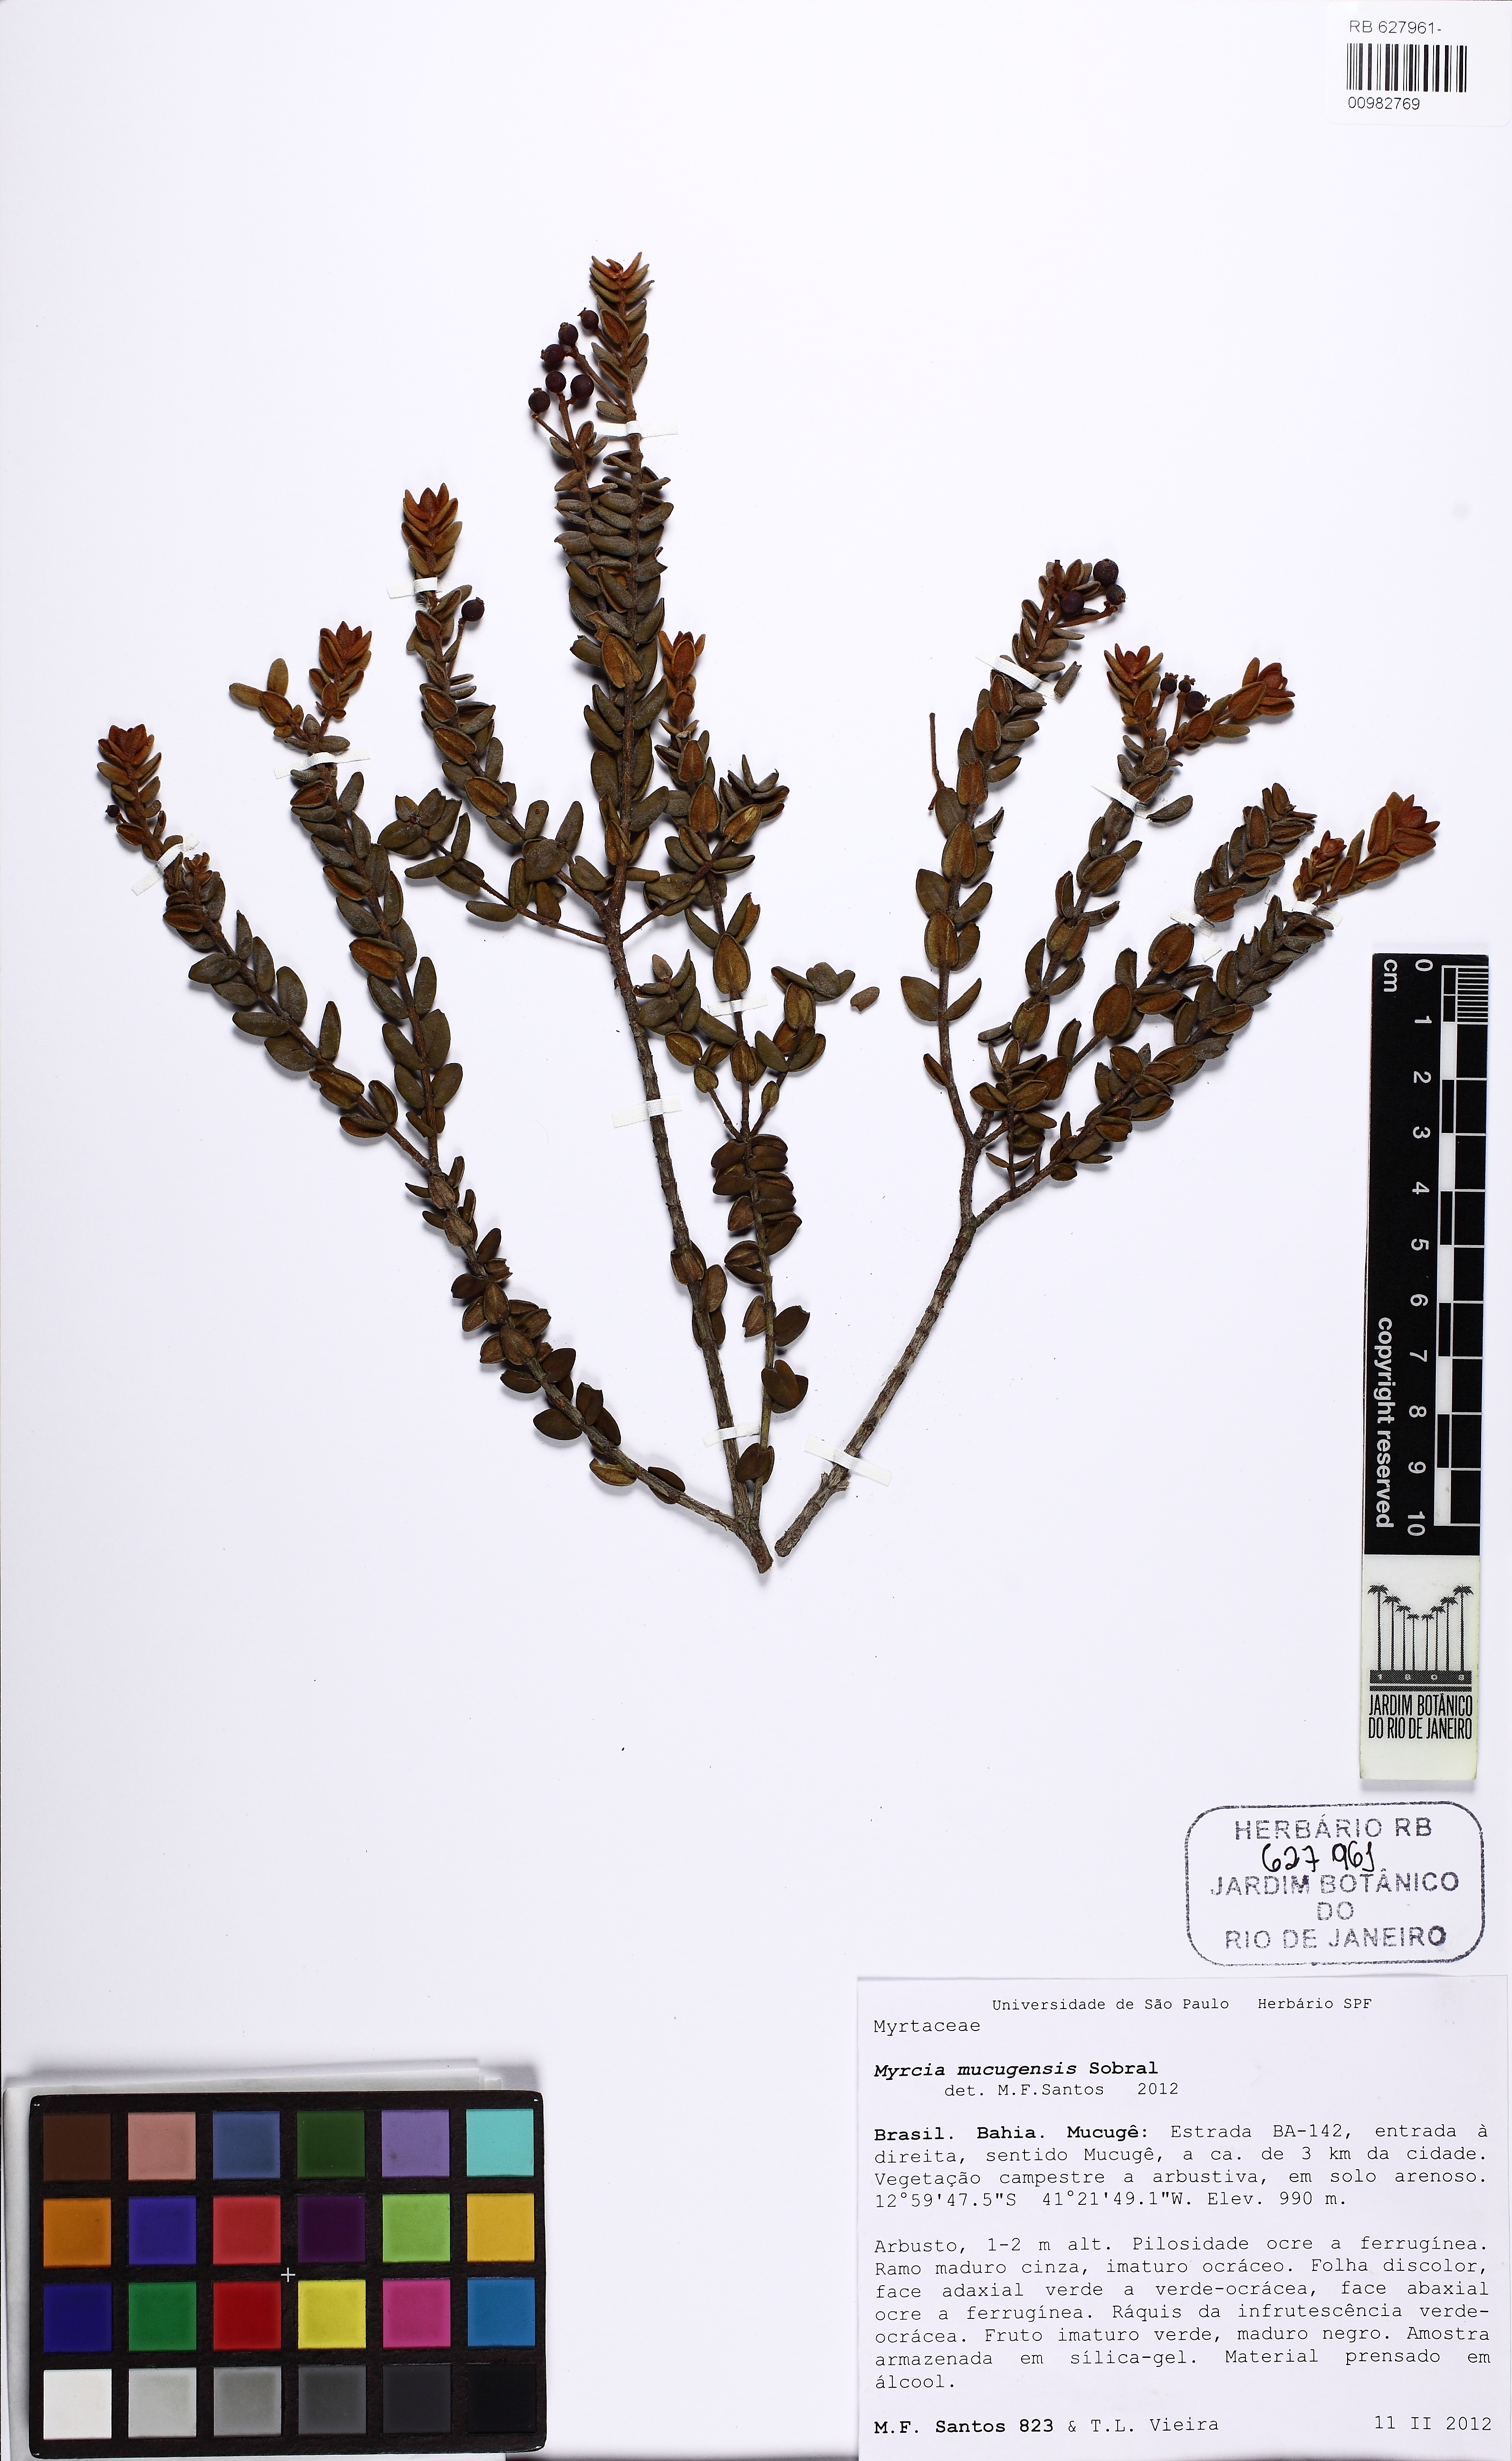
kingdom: Plantae
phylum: Tracheophyta
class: Magnoliopsida
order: Myrtales
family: Myrtaceae
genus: Myrcia
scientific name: Myrcia mucugensis
